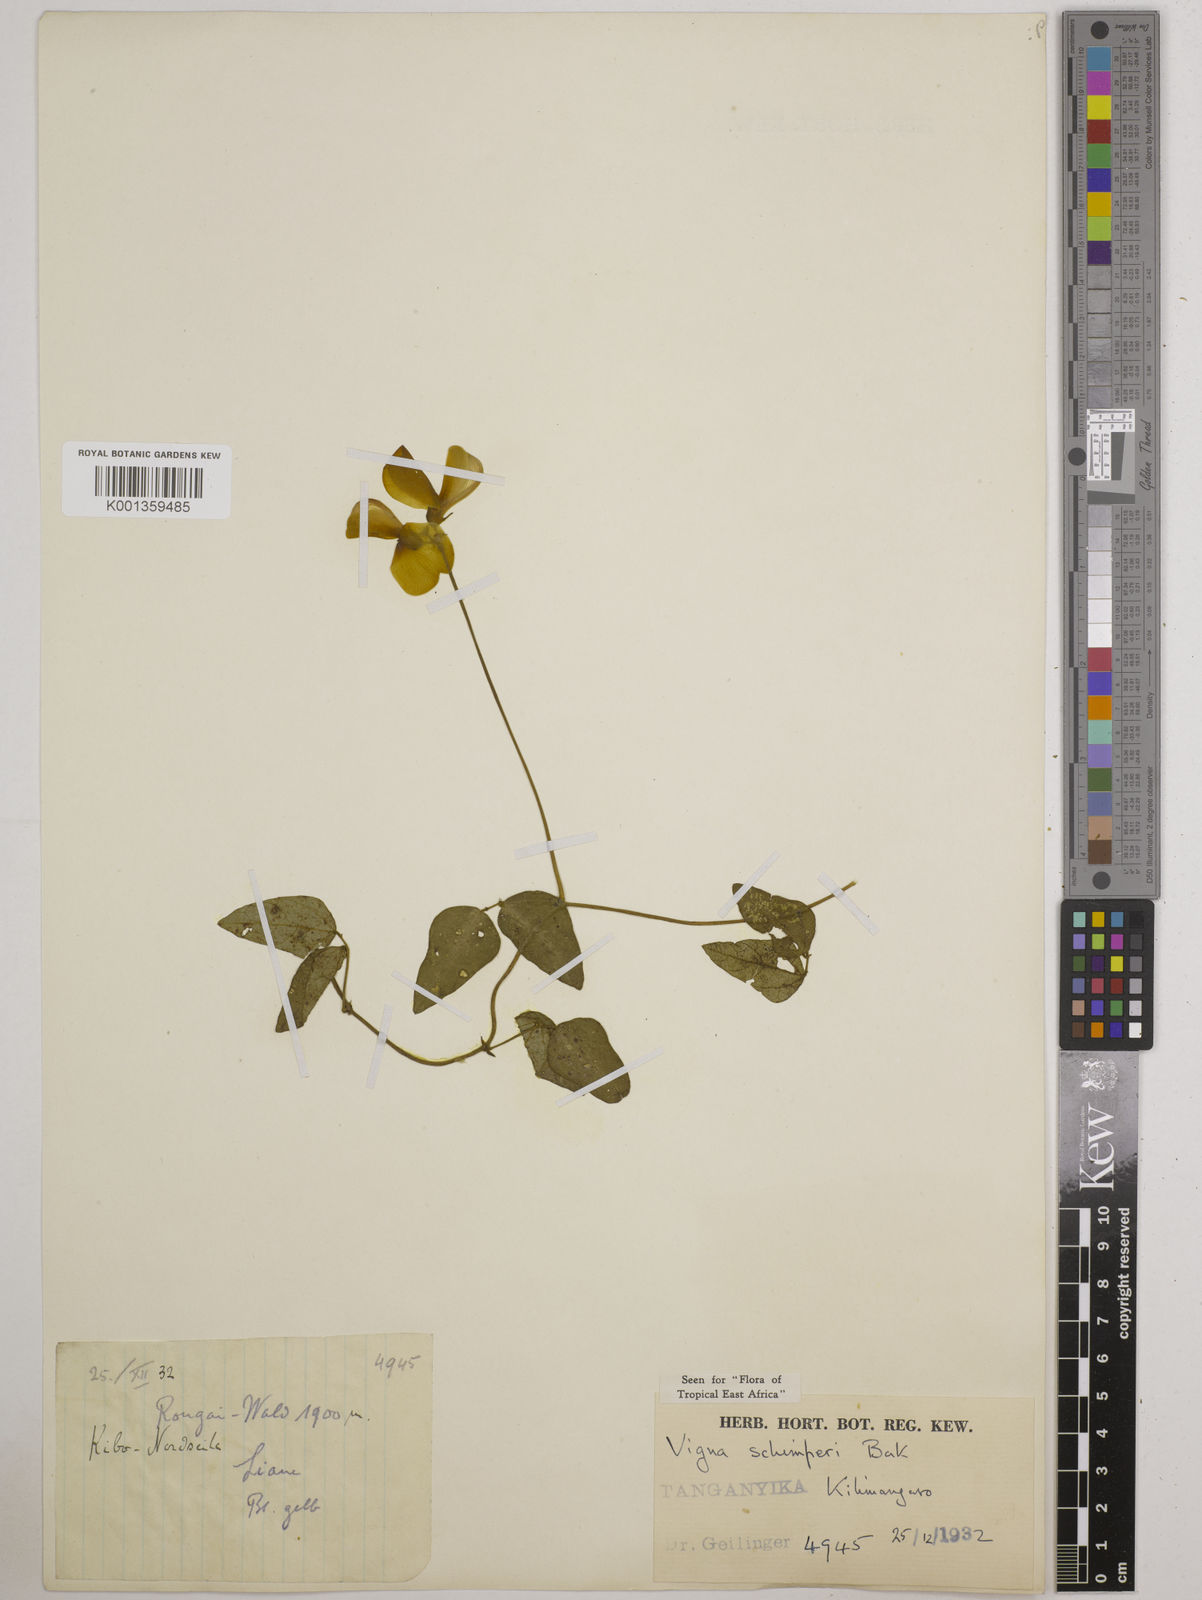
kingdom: Plantae
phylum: Tracheophyta
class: Magnoliopsida
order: Fabales
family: Fabaceae
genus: Vigna
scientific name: Vigna schimperi
